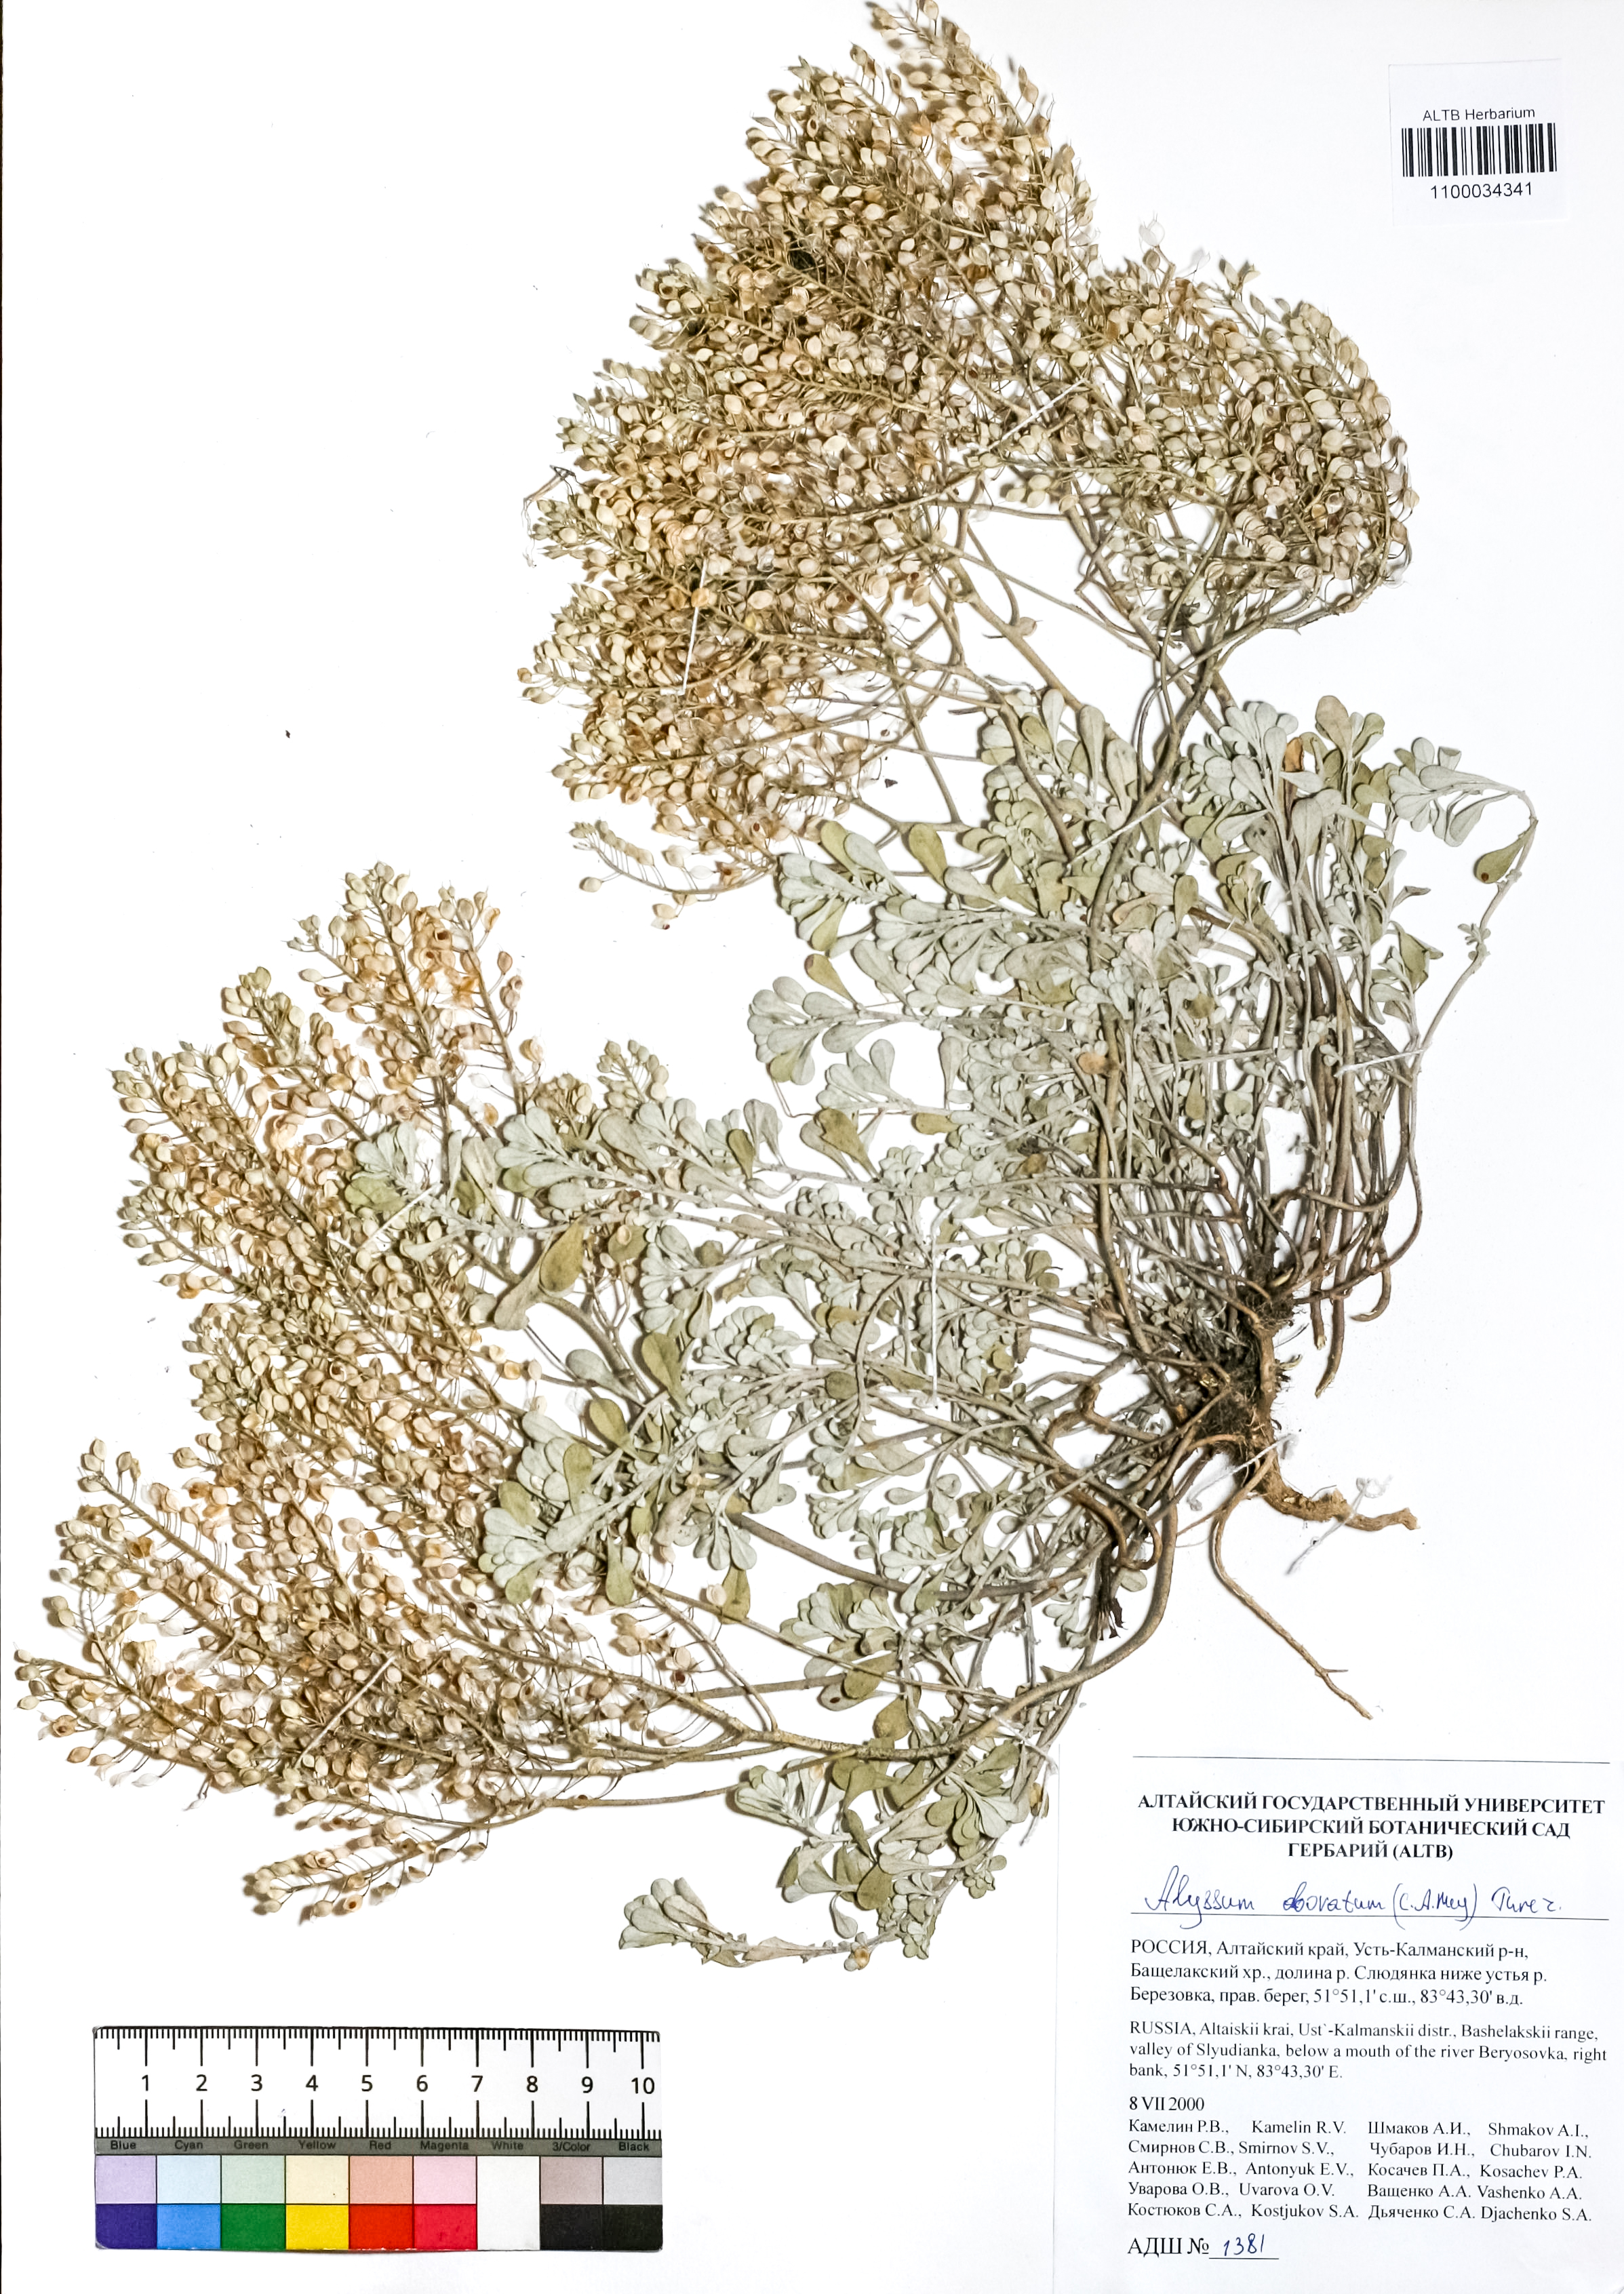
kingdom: Plantae
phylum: Tracheophyta
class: Magnoliopsida
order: Brassicales
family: Brassicaceae
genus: Odontarrhena
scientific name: Odontarrhena obovata
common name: American alyssum
